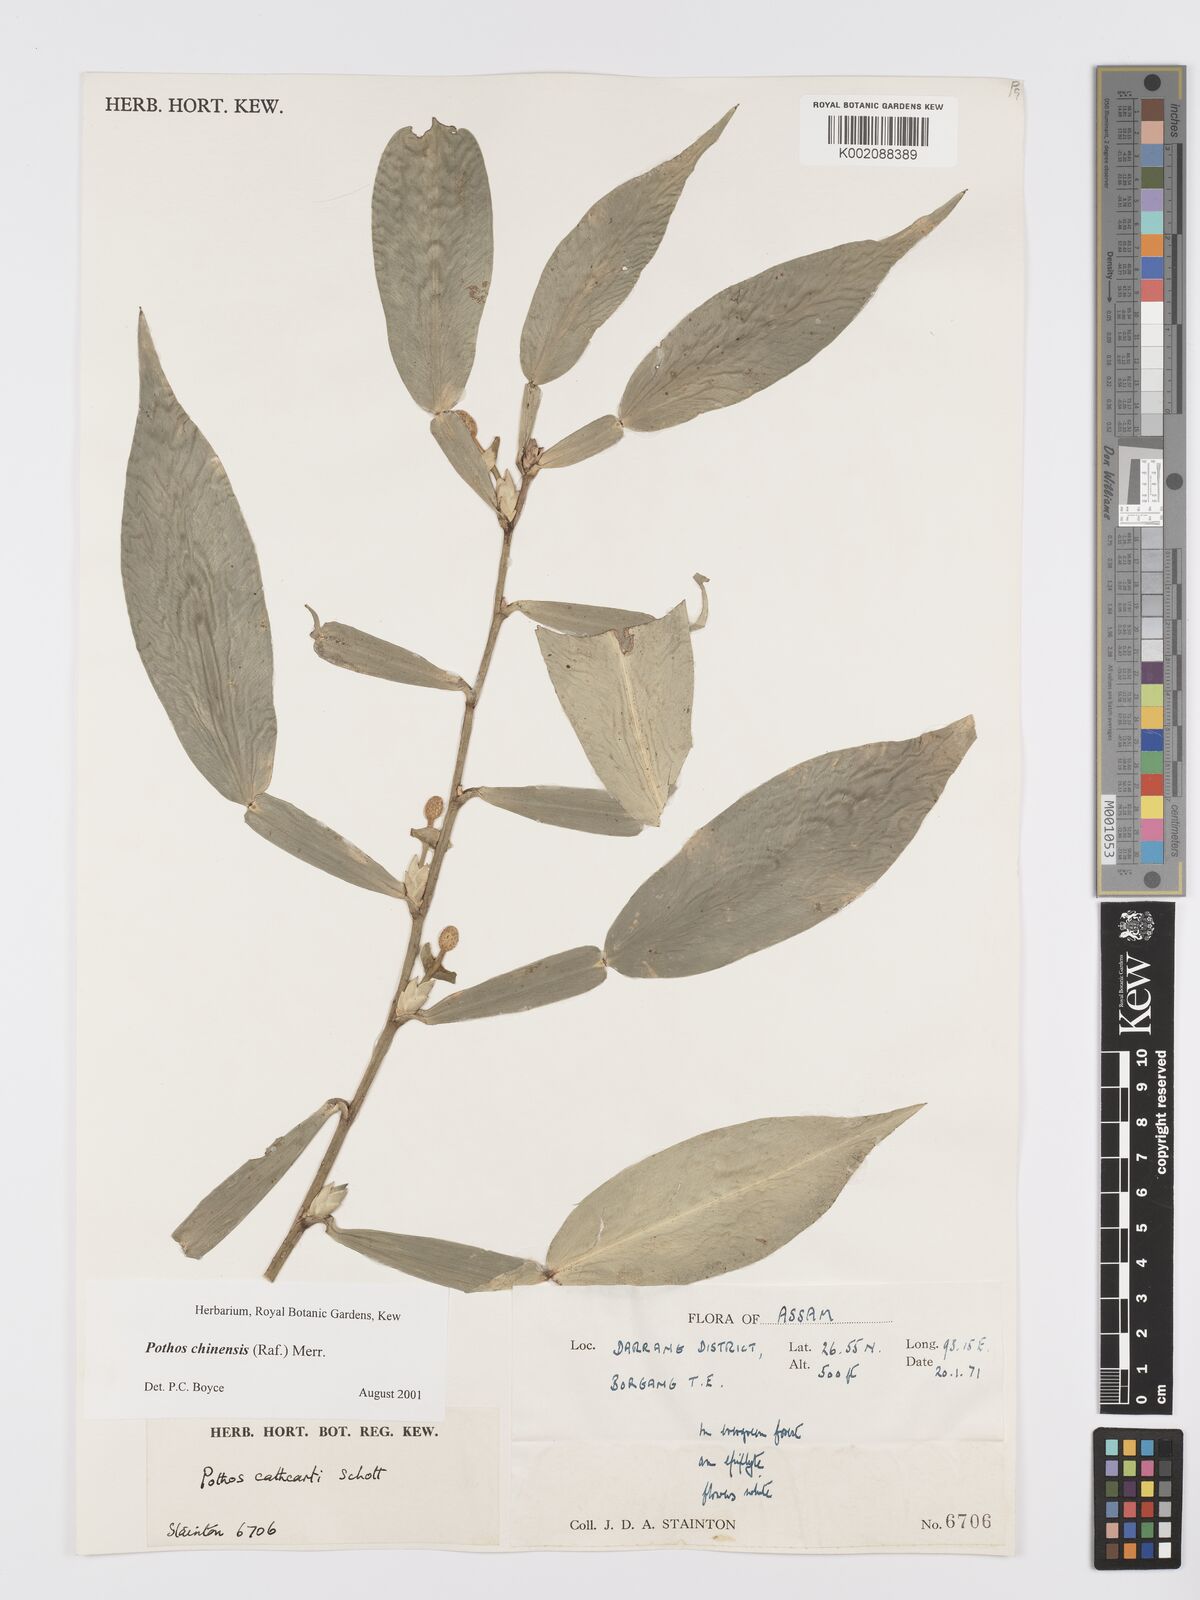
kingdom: Plantae
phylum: Tracheophyta
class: Liliopsida
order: Alismatales
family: Araceae
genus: Pothos
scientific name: Pothos chinensis
